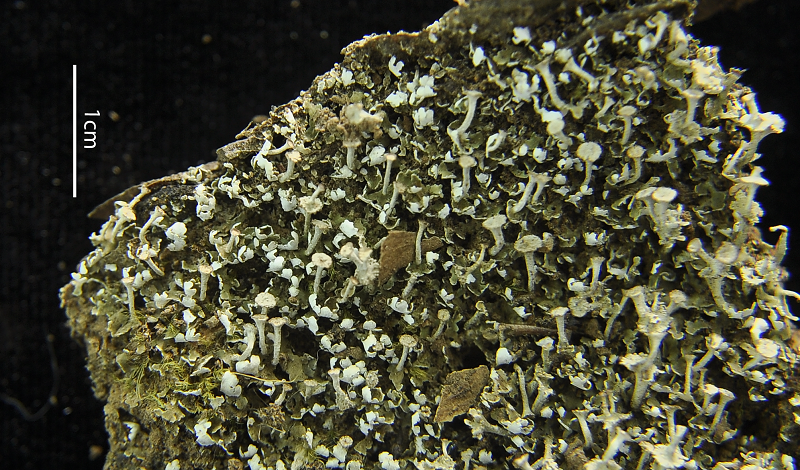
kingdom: Fungi
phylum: Ascomycota
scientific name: Ascomycota
